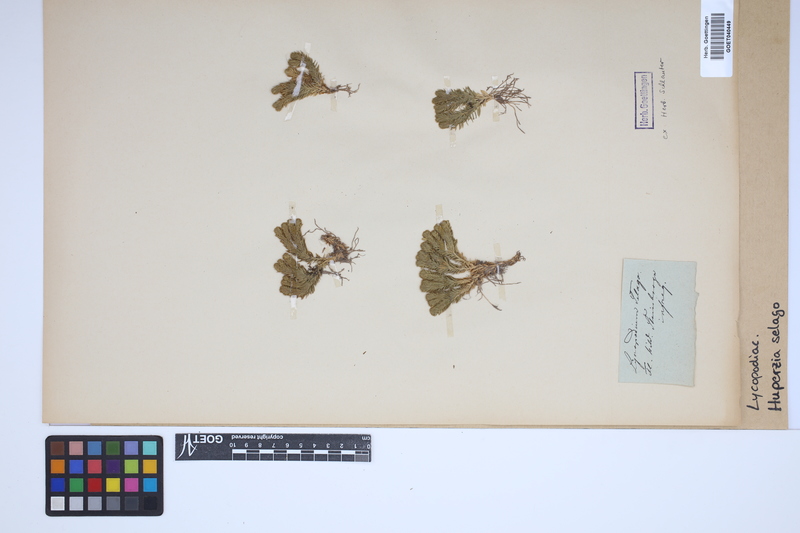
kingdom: Plantae
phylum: Tracheophyta
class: Lycopodiopsida
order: Lycopodiales
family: Lycopodiaceae
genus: Huperzia
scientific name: Huperzia selago
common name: Northern firmoss
